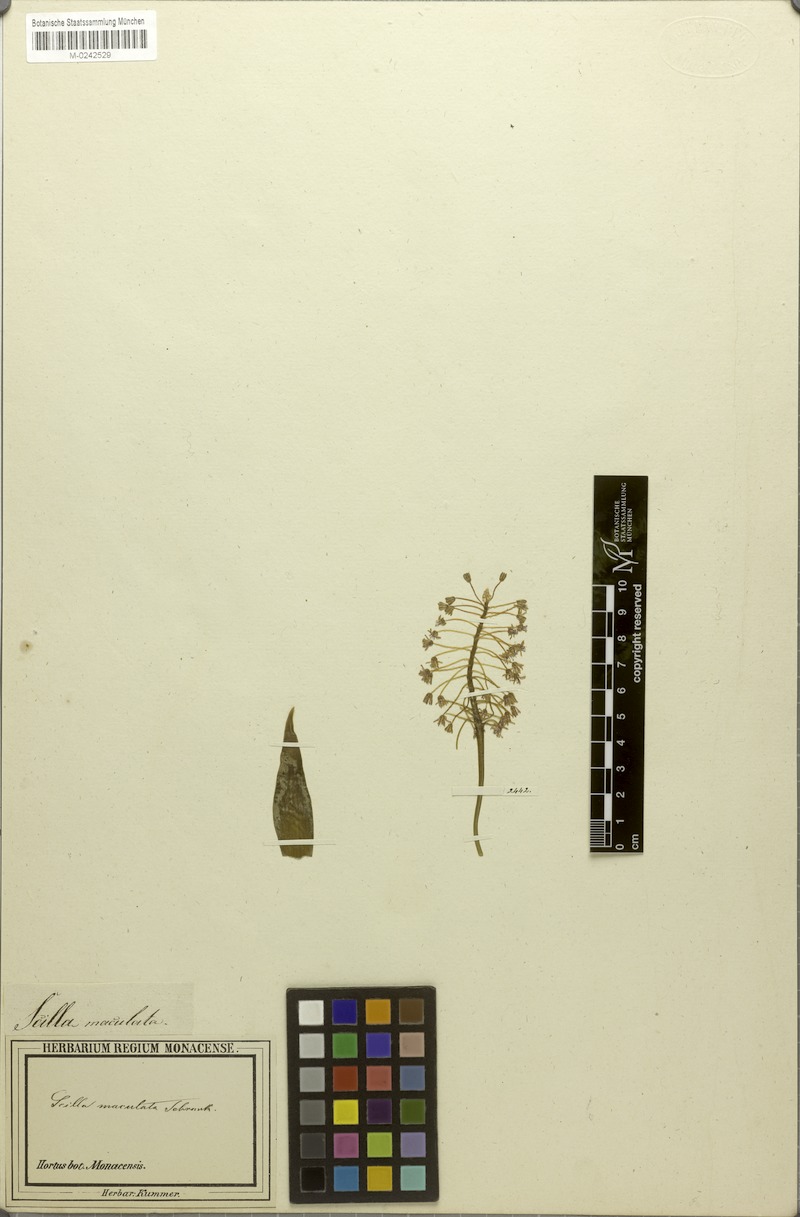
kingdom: Plantae
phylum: Tracheophyta
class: Liliopsida
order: Asparagales
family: Asparagaceae
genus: Ledebouria
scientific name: Ledebouria revoluta
